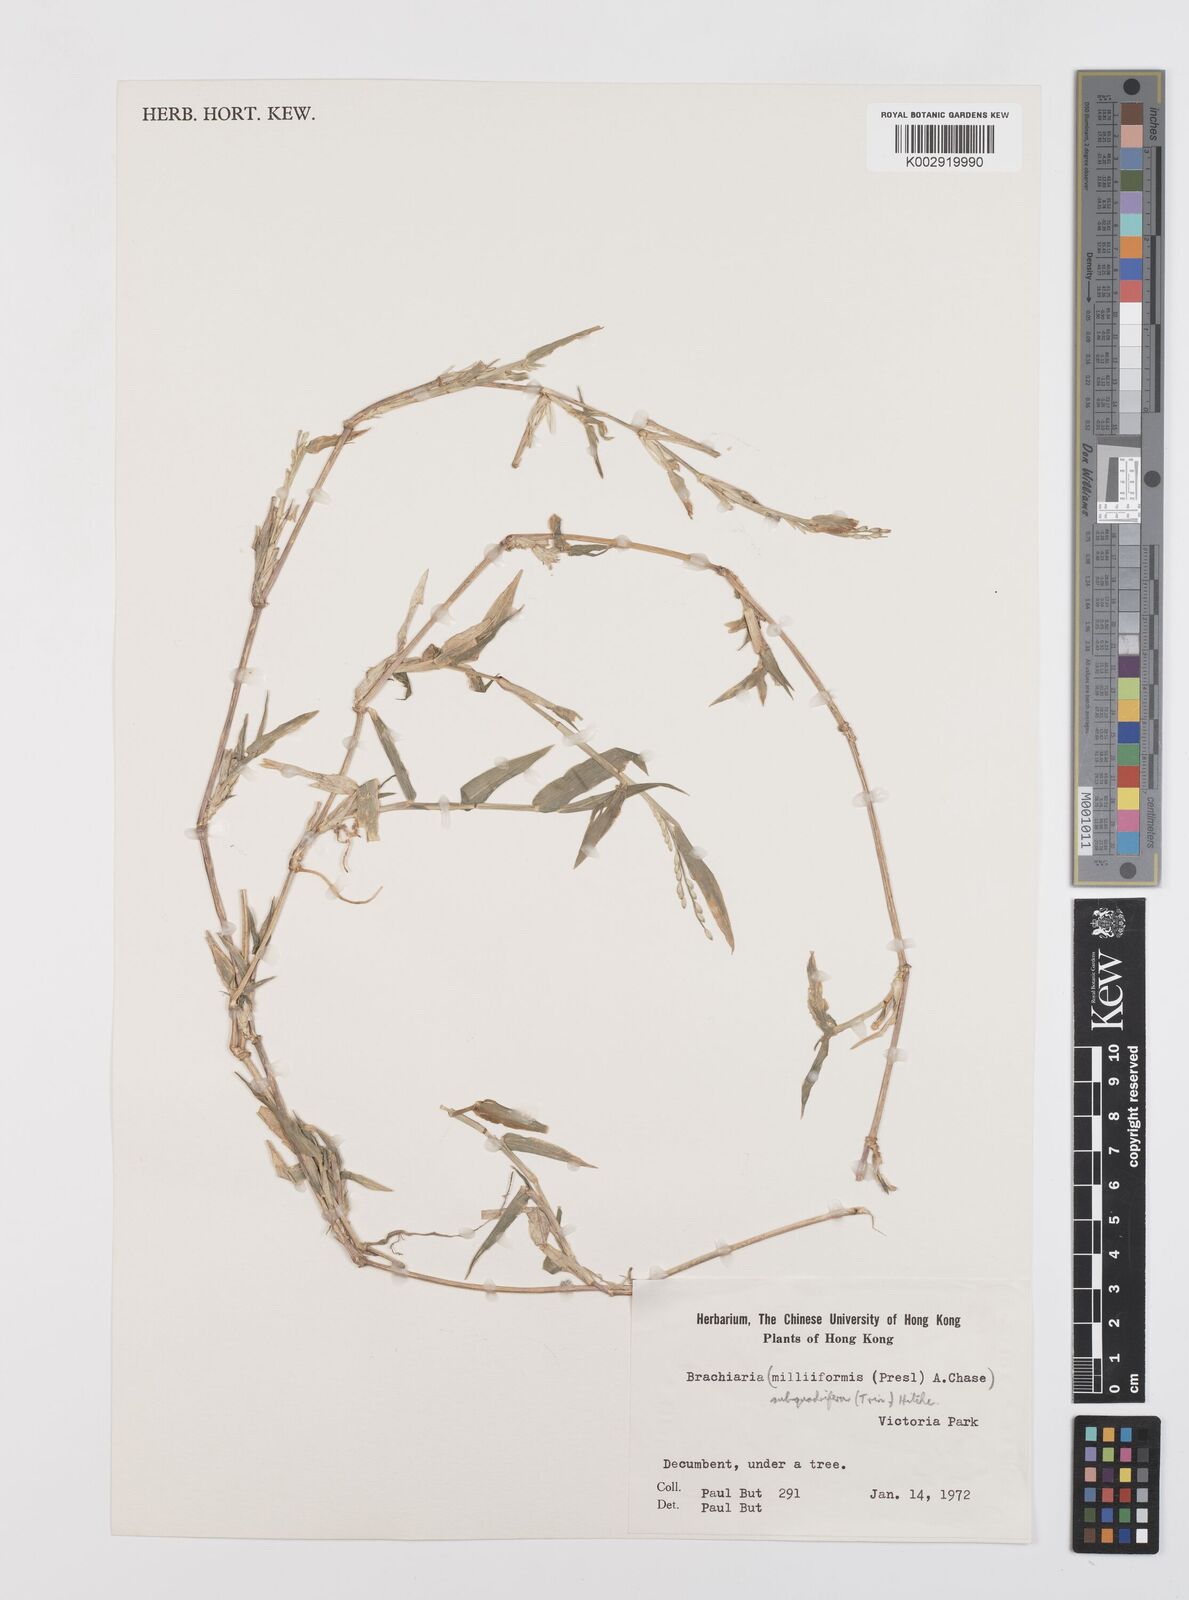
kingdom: Plantae
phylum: Tracheophyta
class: Liliopsida
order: Poales
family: Poaceae
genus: Urochloa
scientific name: Urochloa subquadripara
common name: Armgrass millet
